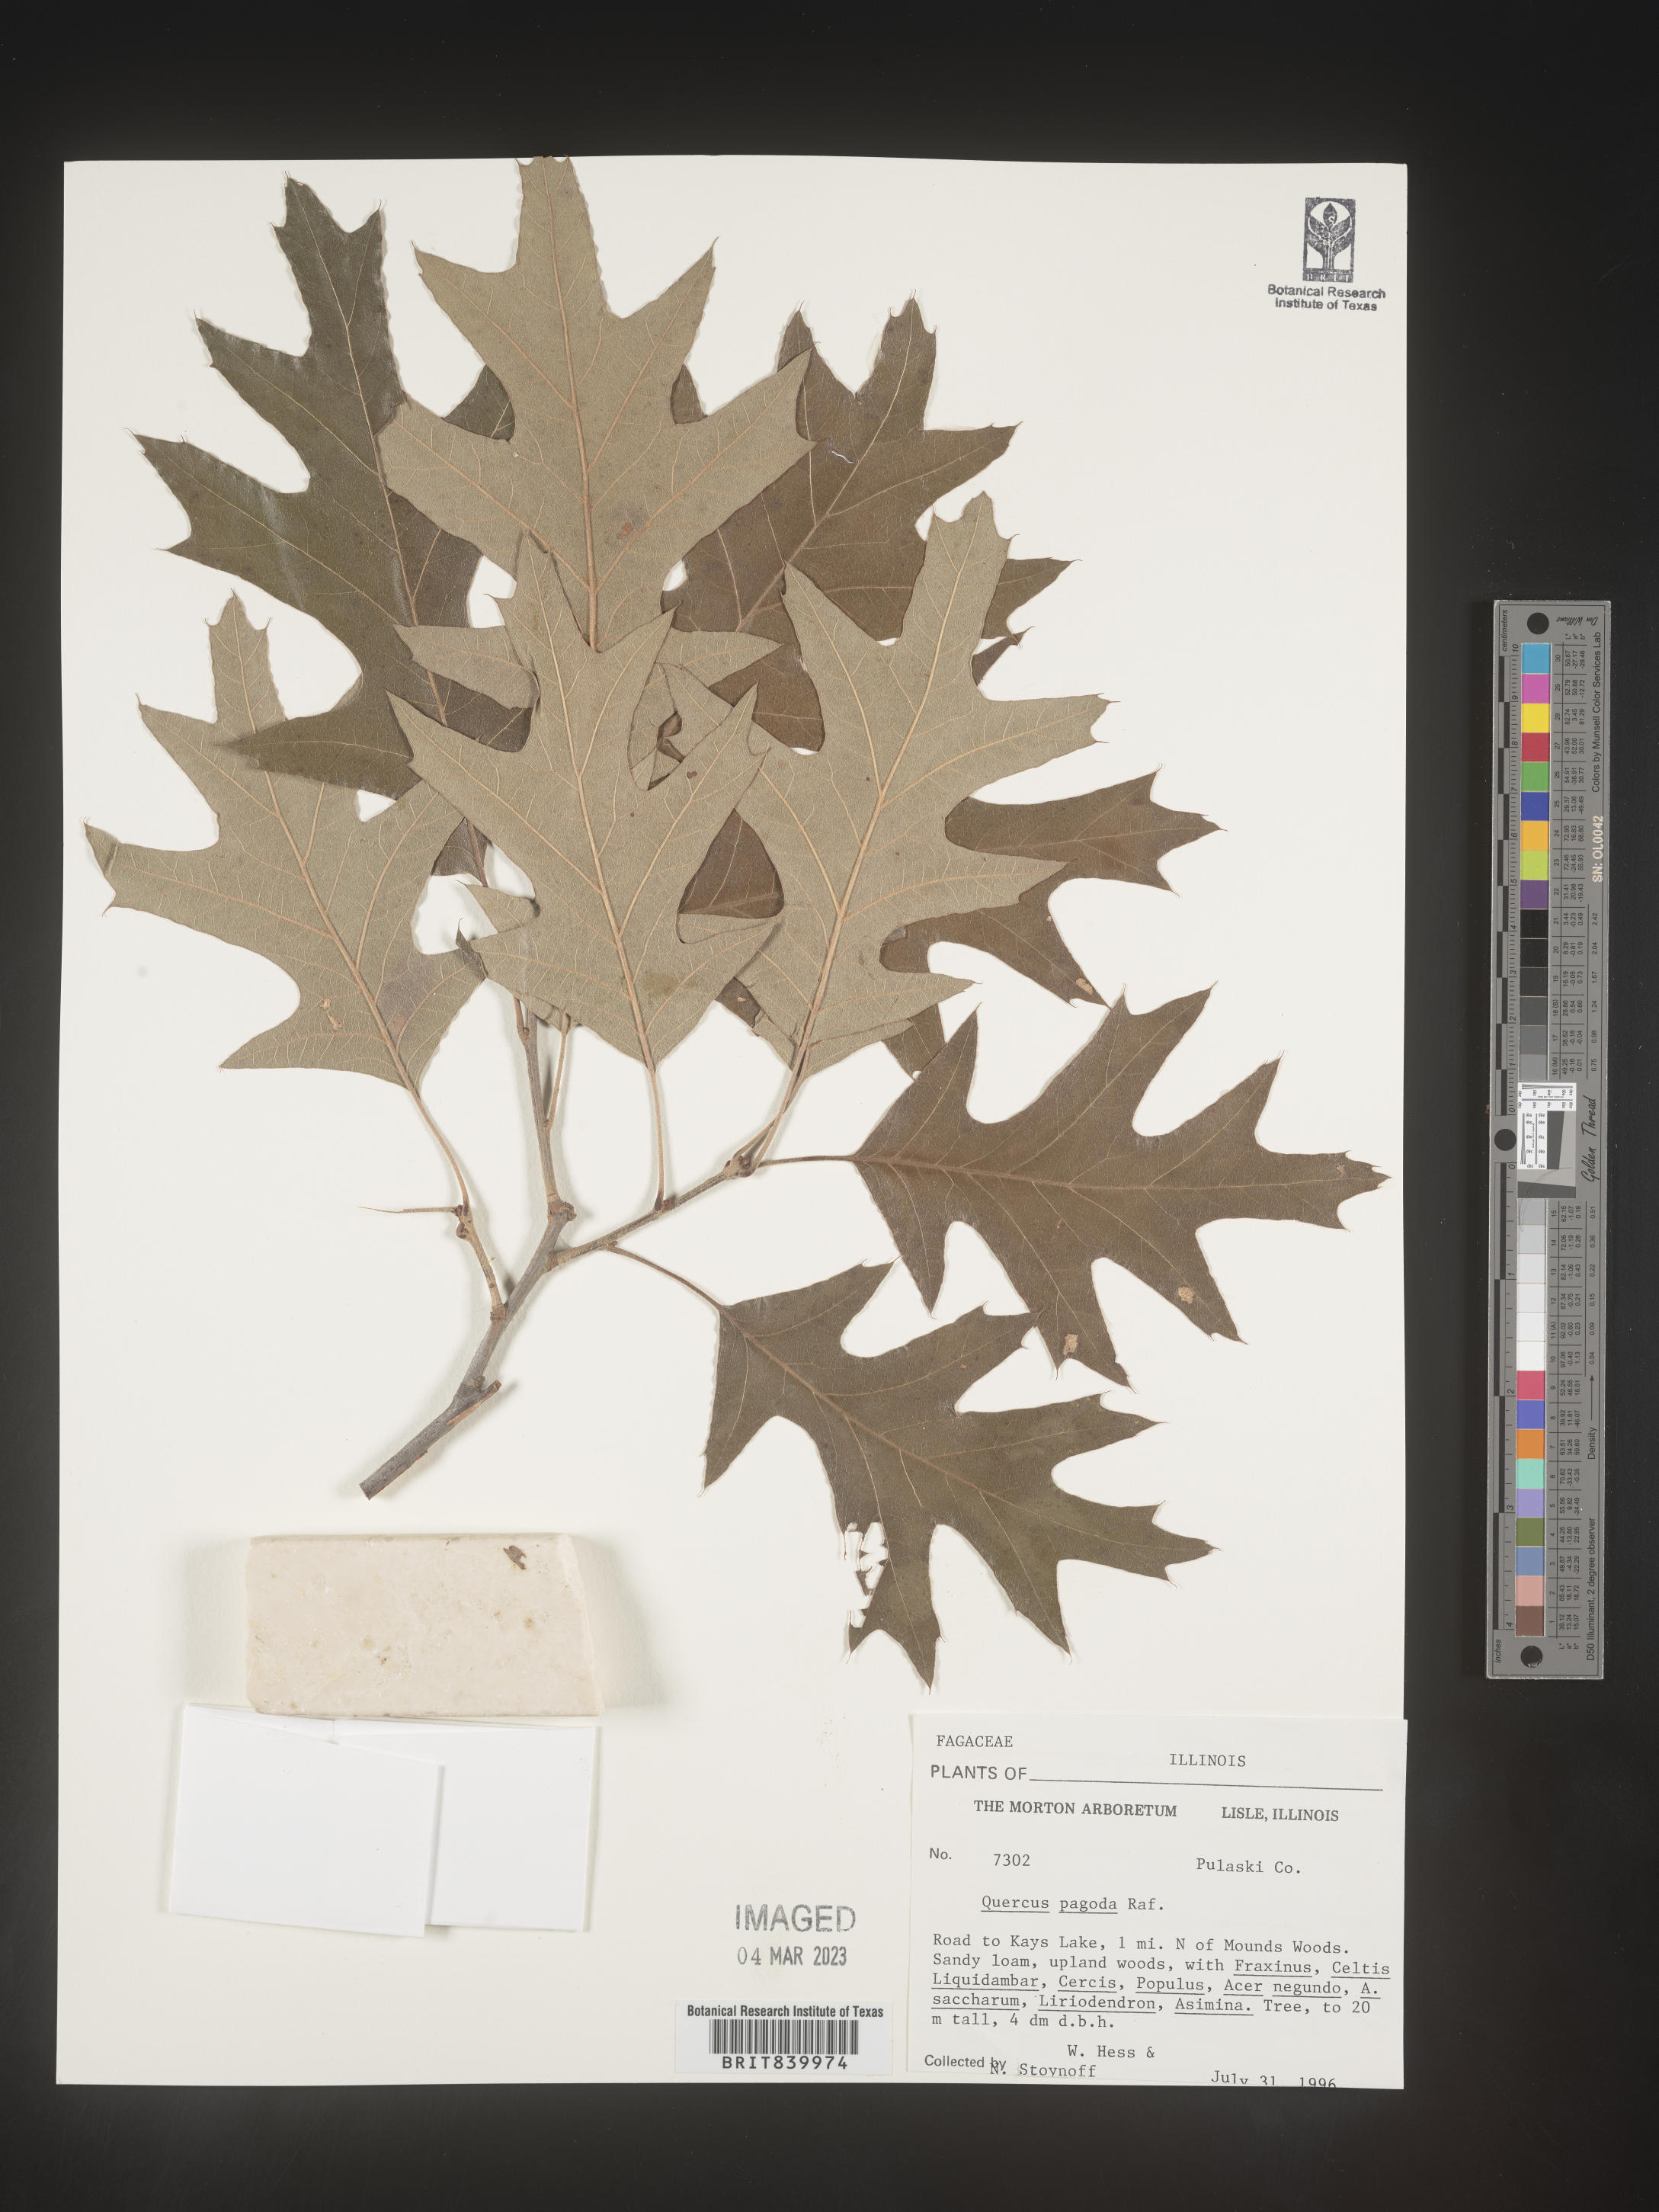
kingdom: Plantae
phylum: Tracheophyta
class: Magnoliopsida
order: Fagales
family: Fagaceae
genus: Quercus
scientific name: Quercus pagoda
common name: Cherrybark oak
